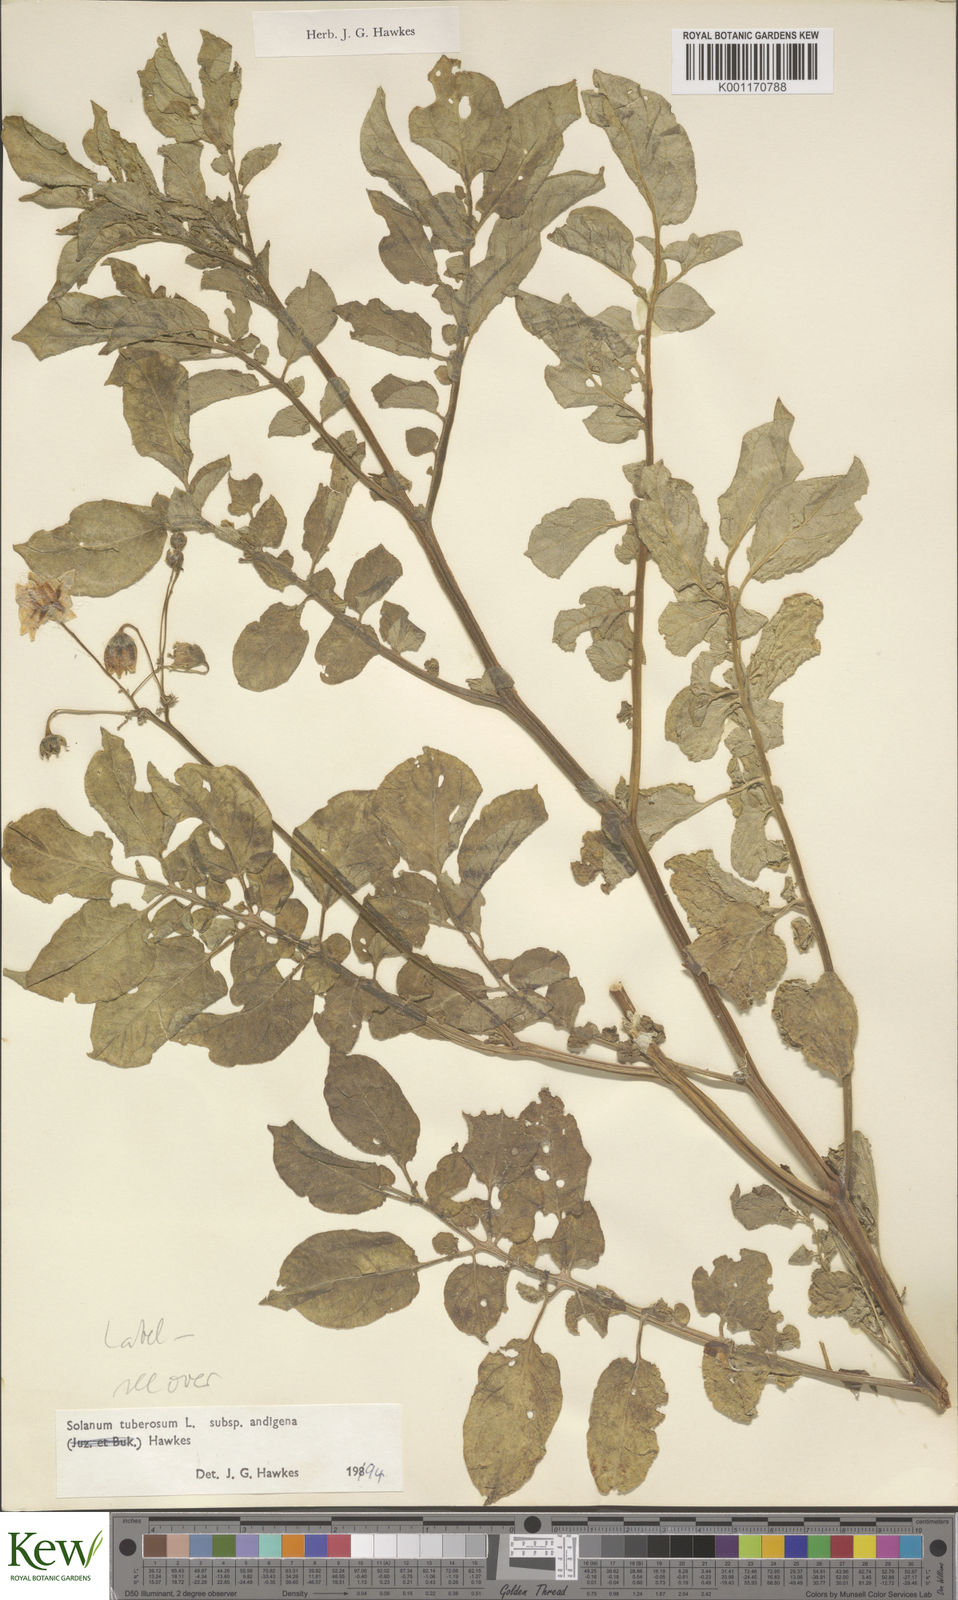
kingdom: Plantae
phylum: Tracheophyta
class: Magnoliopsida
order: Solanales
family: Solanaceae
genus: Solanum
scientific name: Solanum tuberosum
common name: Potato
